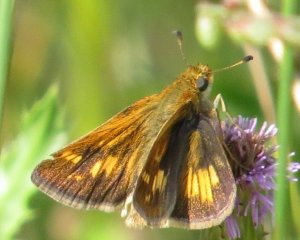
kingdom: Animalia
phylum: Arthropoda
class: Insecta
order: Lepidoptera
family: Hesperiidae
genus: Polites
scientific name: Polites coras
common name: Peck's Skipper
